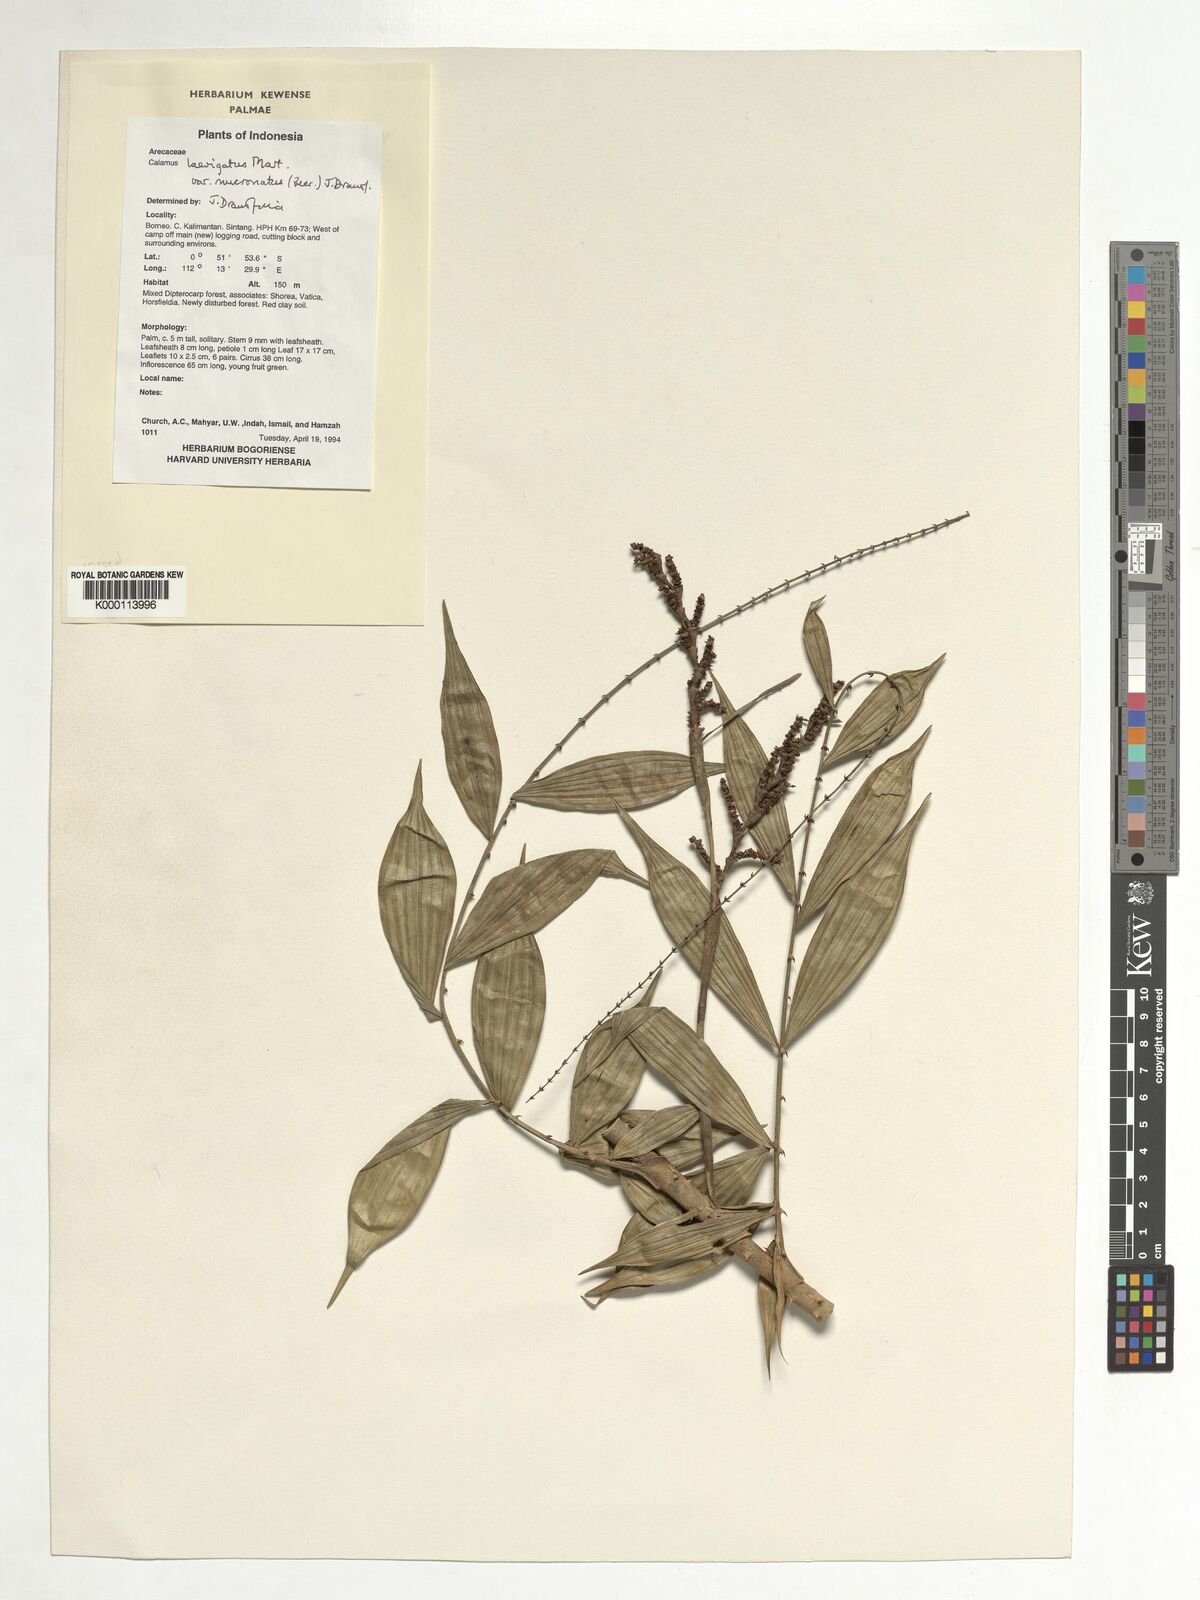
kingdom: Plantae
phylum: Tracheophyta
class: Liliopsida
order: Arecales
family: Arecaceae
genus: Calamus
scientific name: Calamus plicatus
